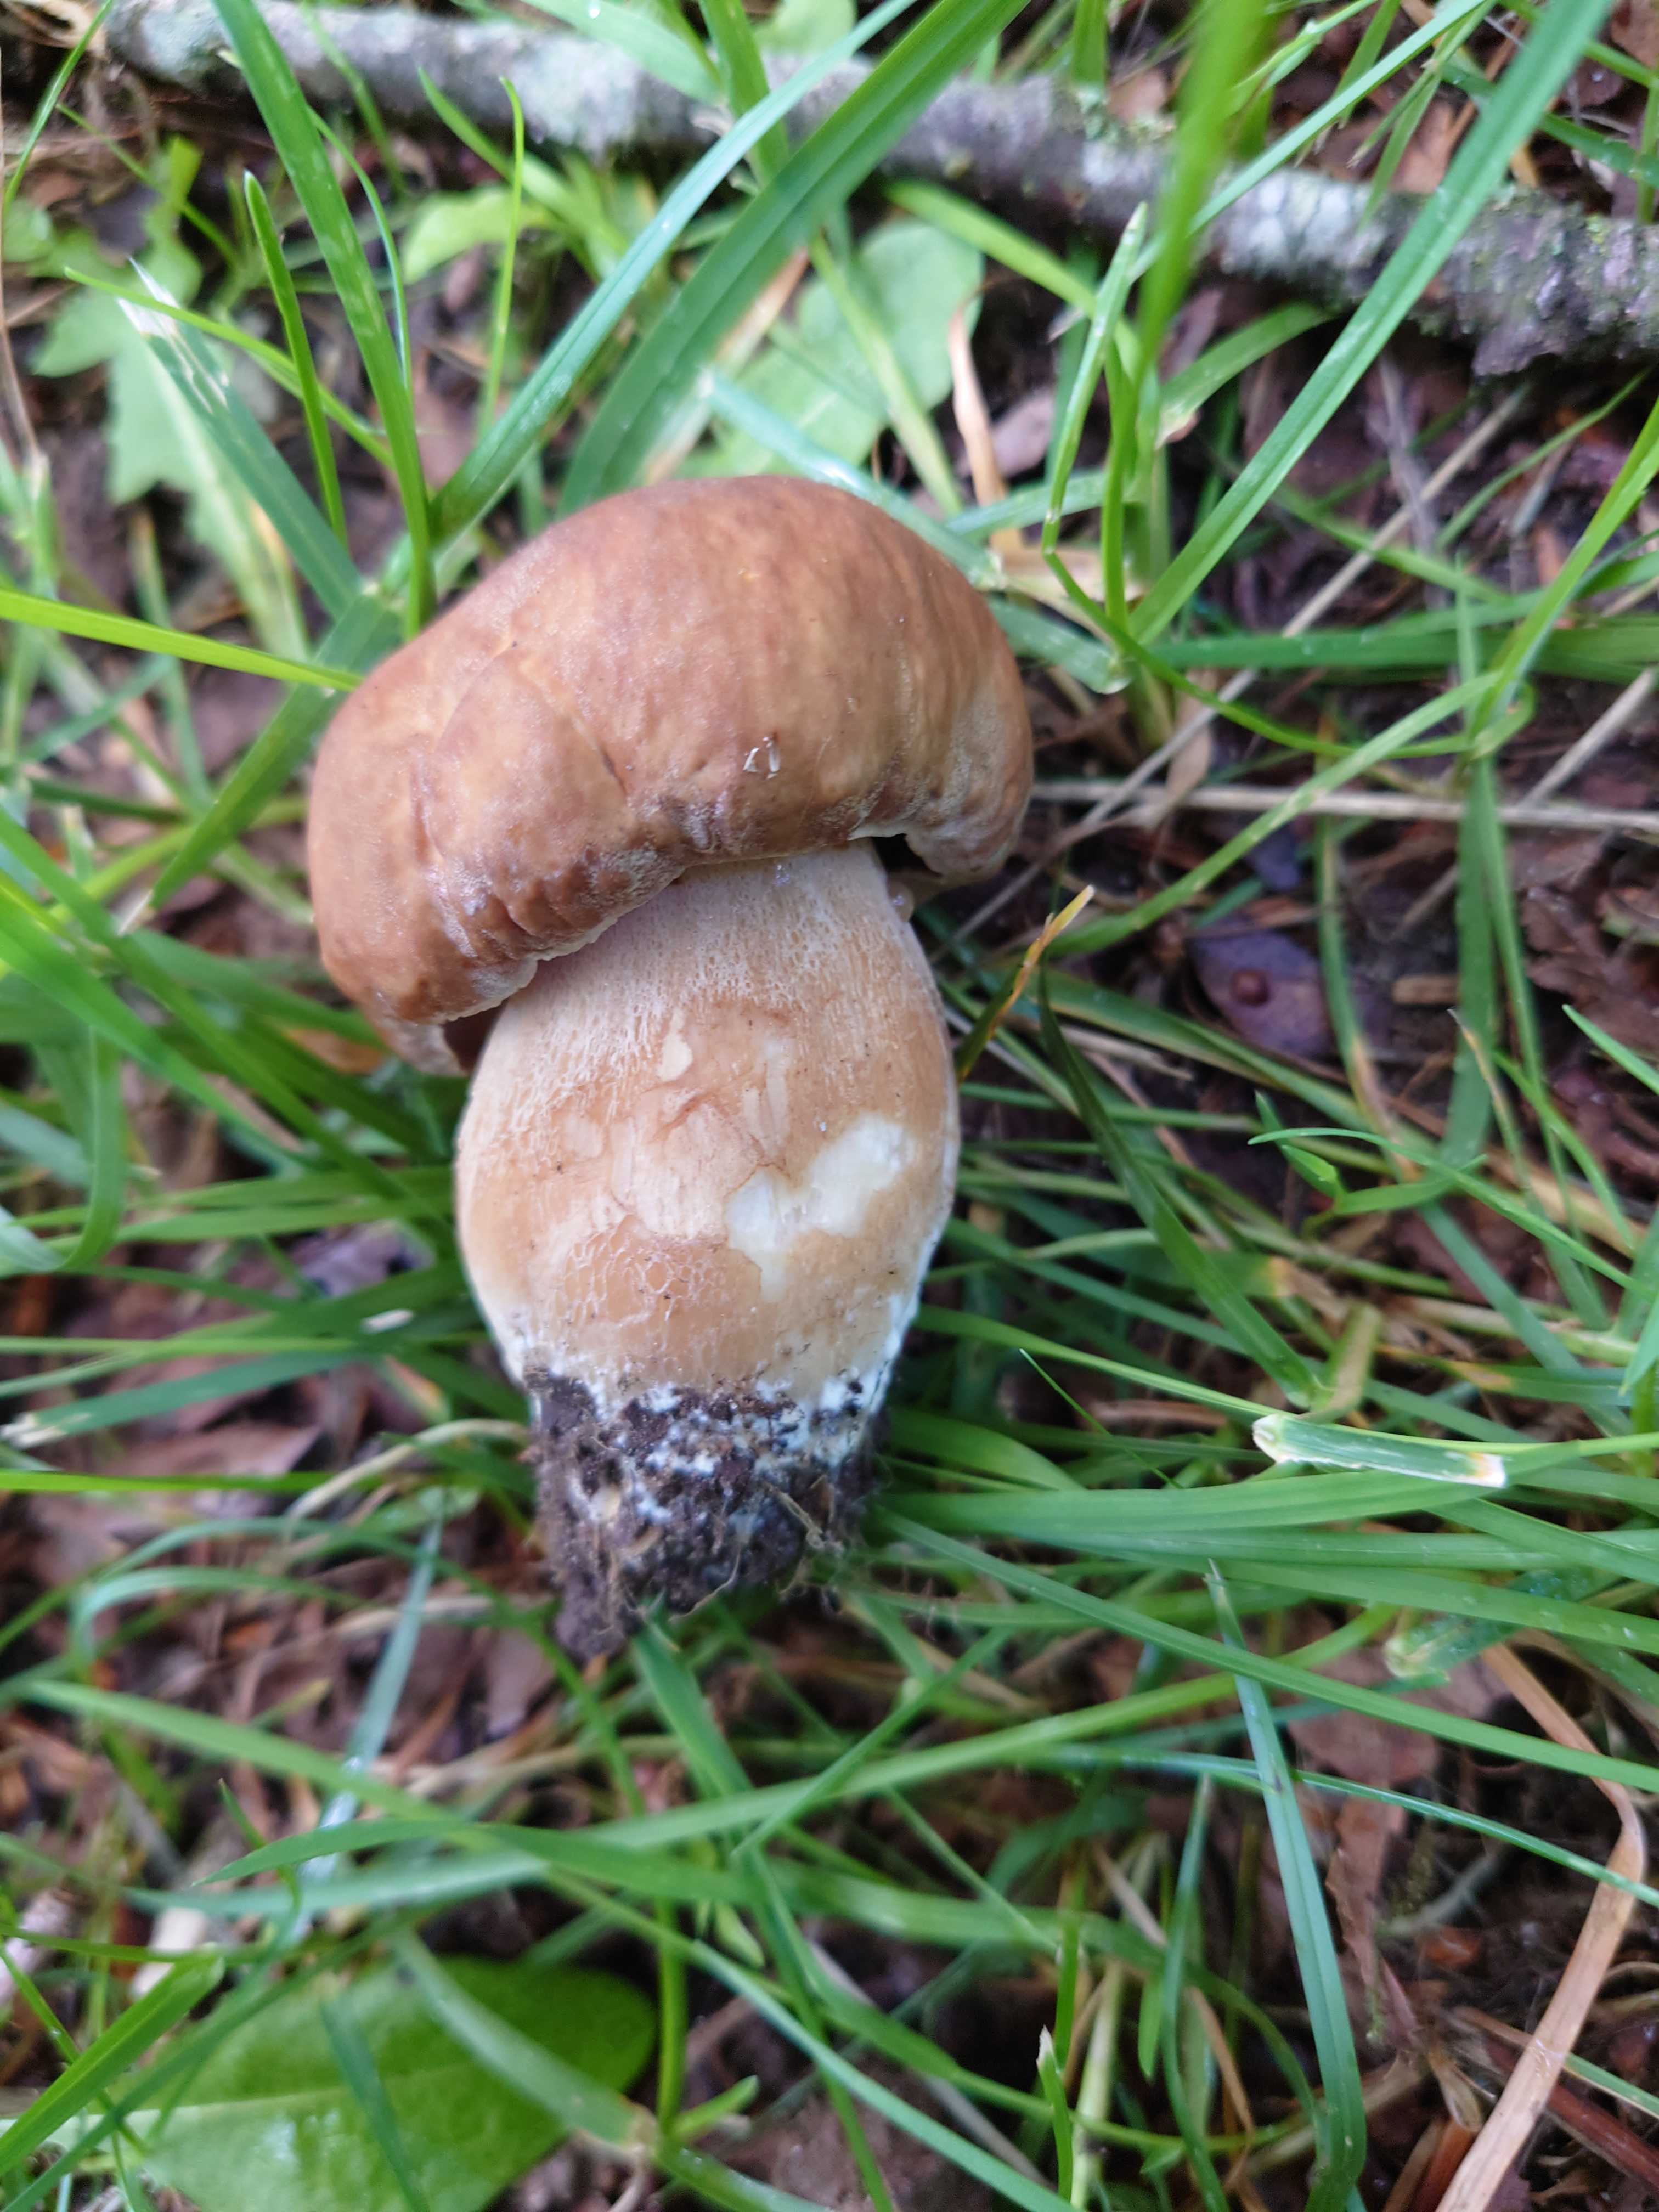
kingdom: Fungi
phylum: Basidiomycota
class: Agaricomycetes
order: Boletales
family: Boletaceae
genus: Boletus
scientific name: Boletus reticulatus
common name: sommer-rørhat
